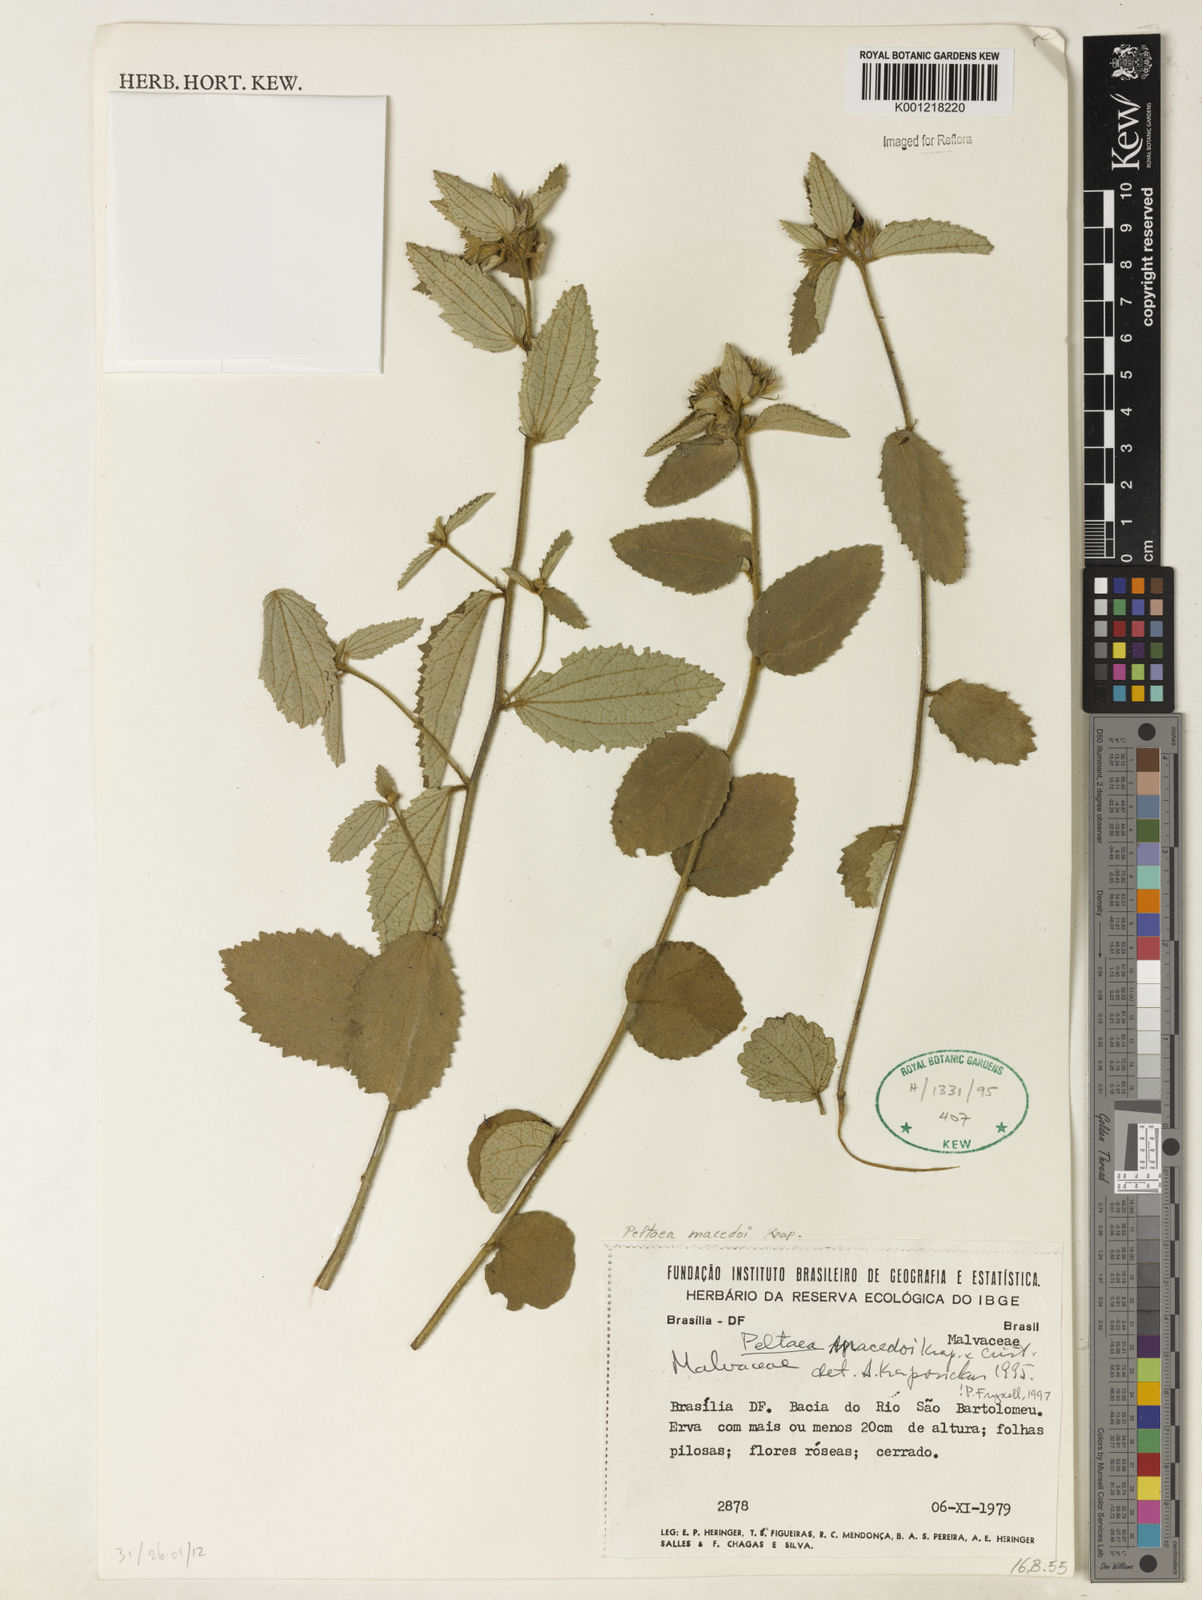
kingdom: Plantae
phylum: Tracheophyta
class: Magnoliopsida
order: Malvales
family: Malvaceae
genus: Peltaea
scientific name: Peltaea
